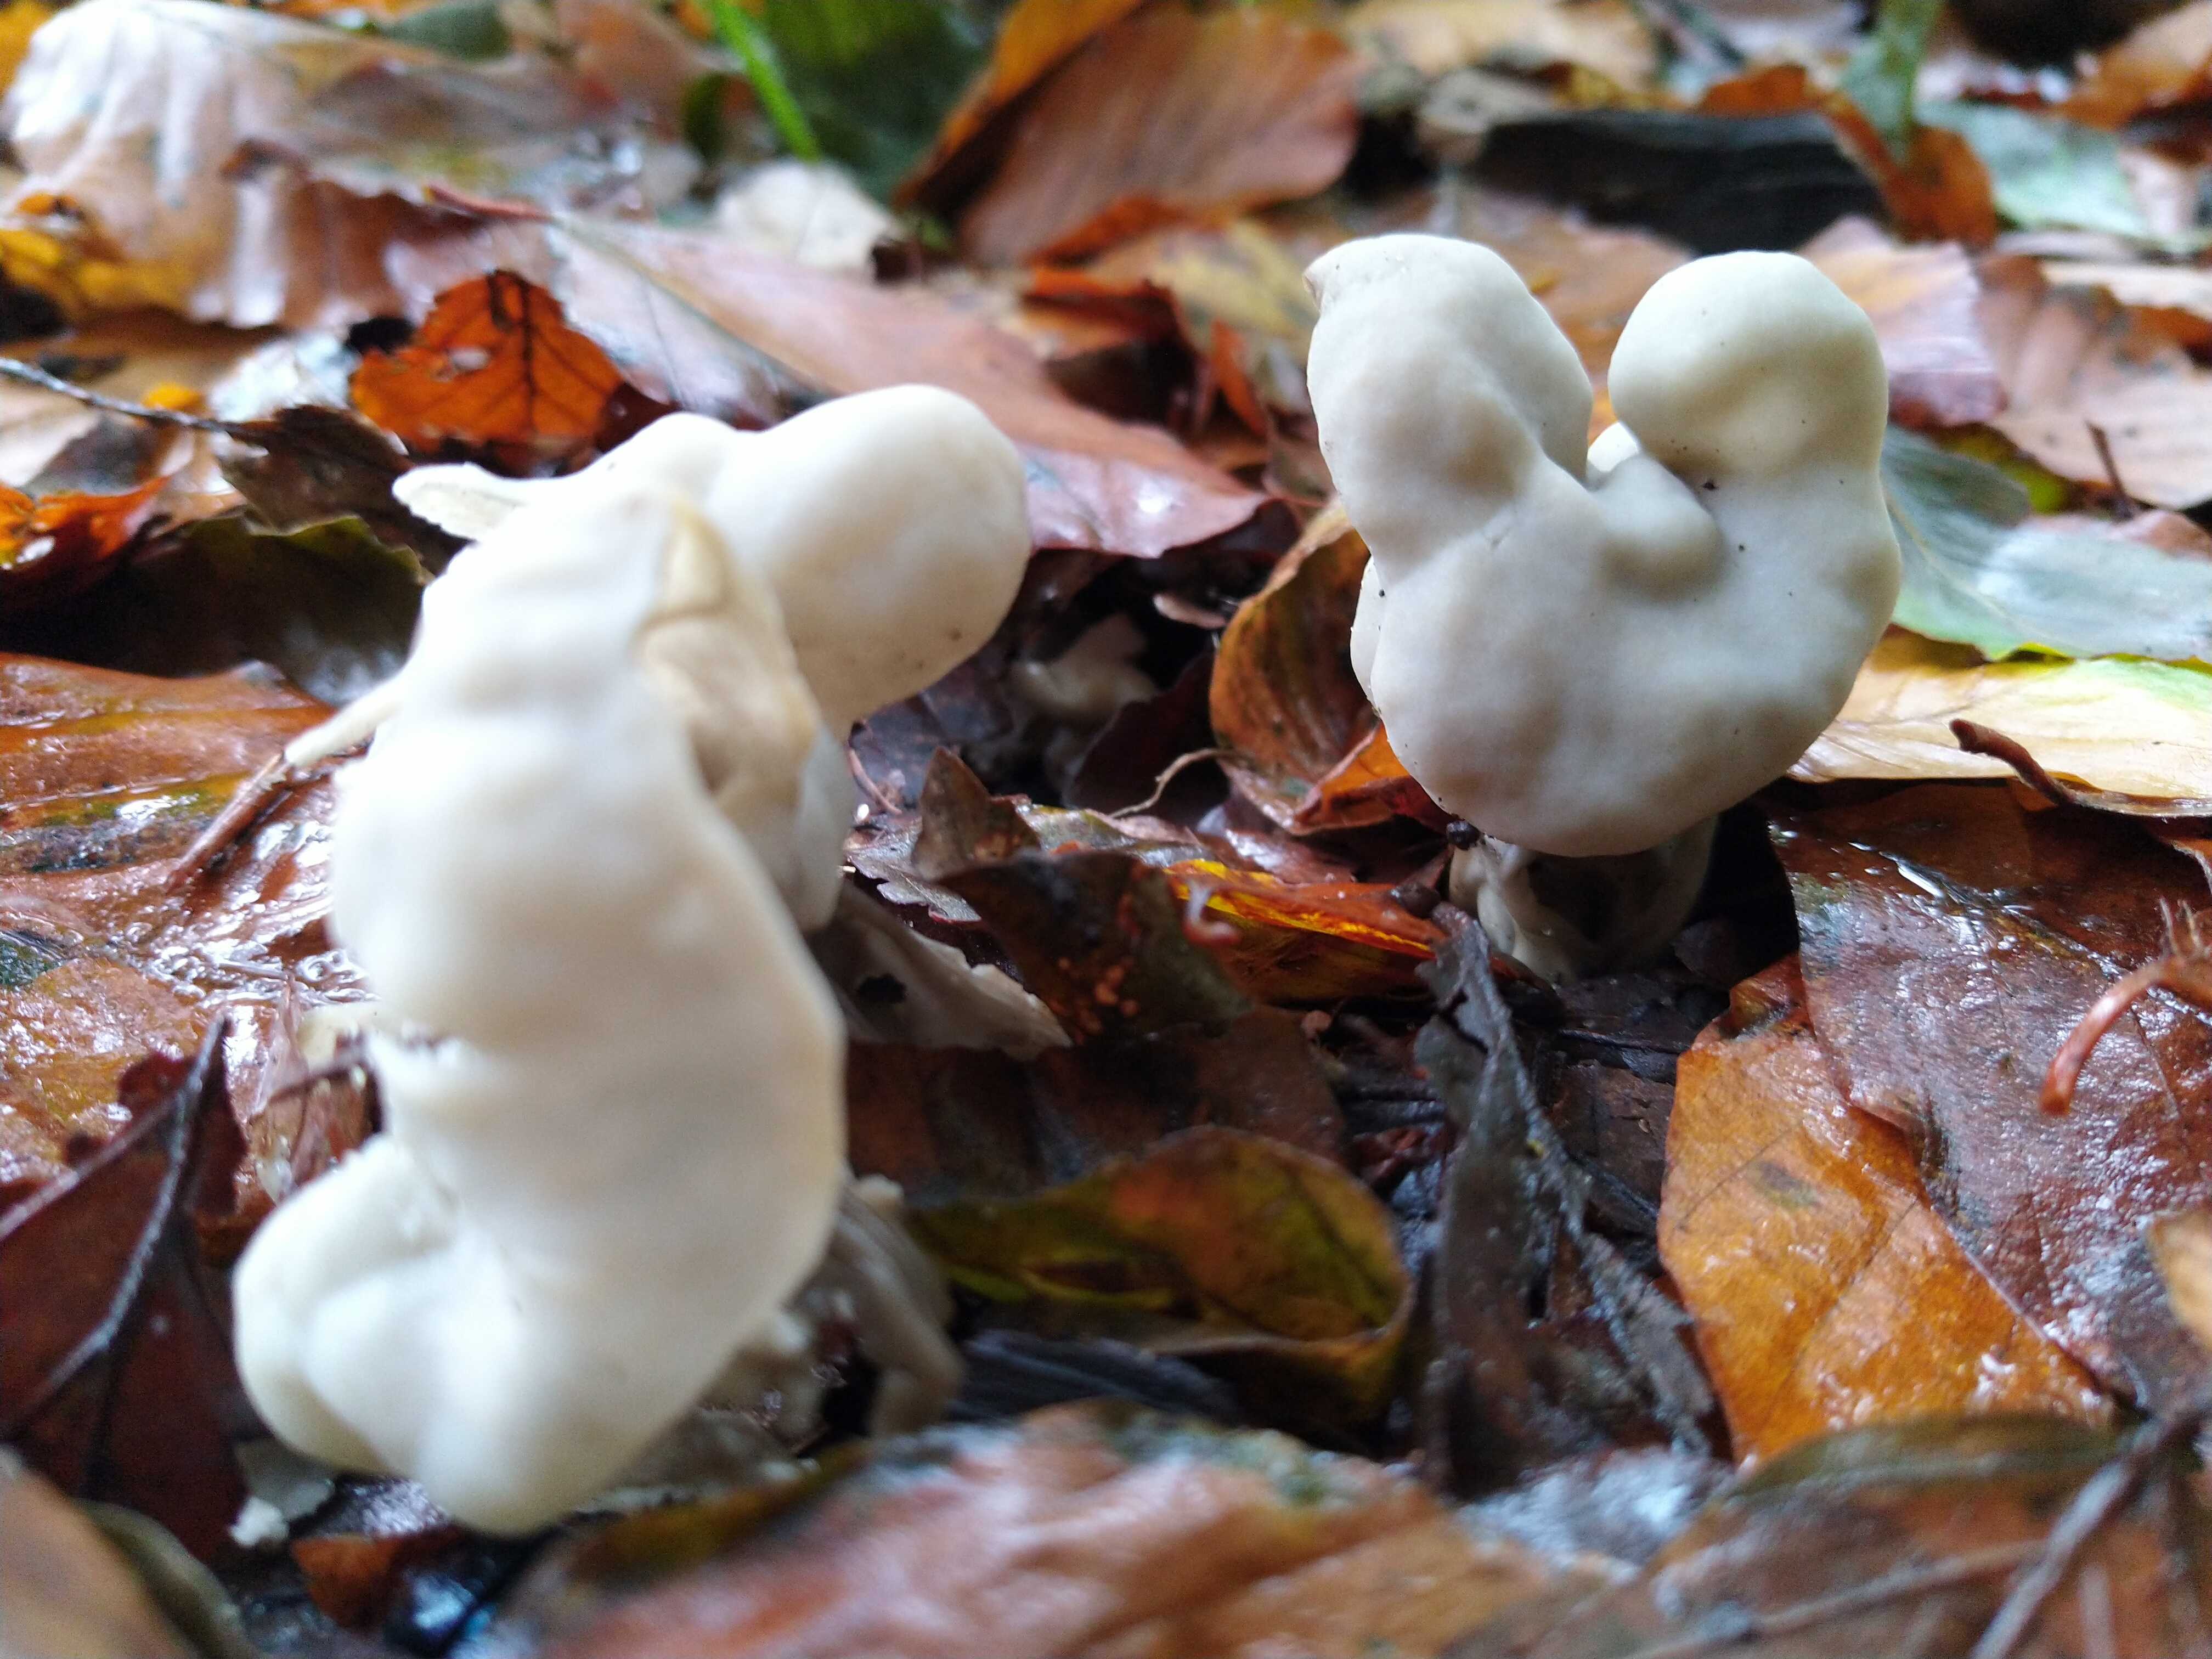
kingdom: Fungi
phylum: Ascomycota
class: Pezizomycetes
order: Pezizales
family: Helvellaceae
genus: Helvella
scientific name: Helvella crispa
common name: kruset foldhat
